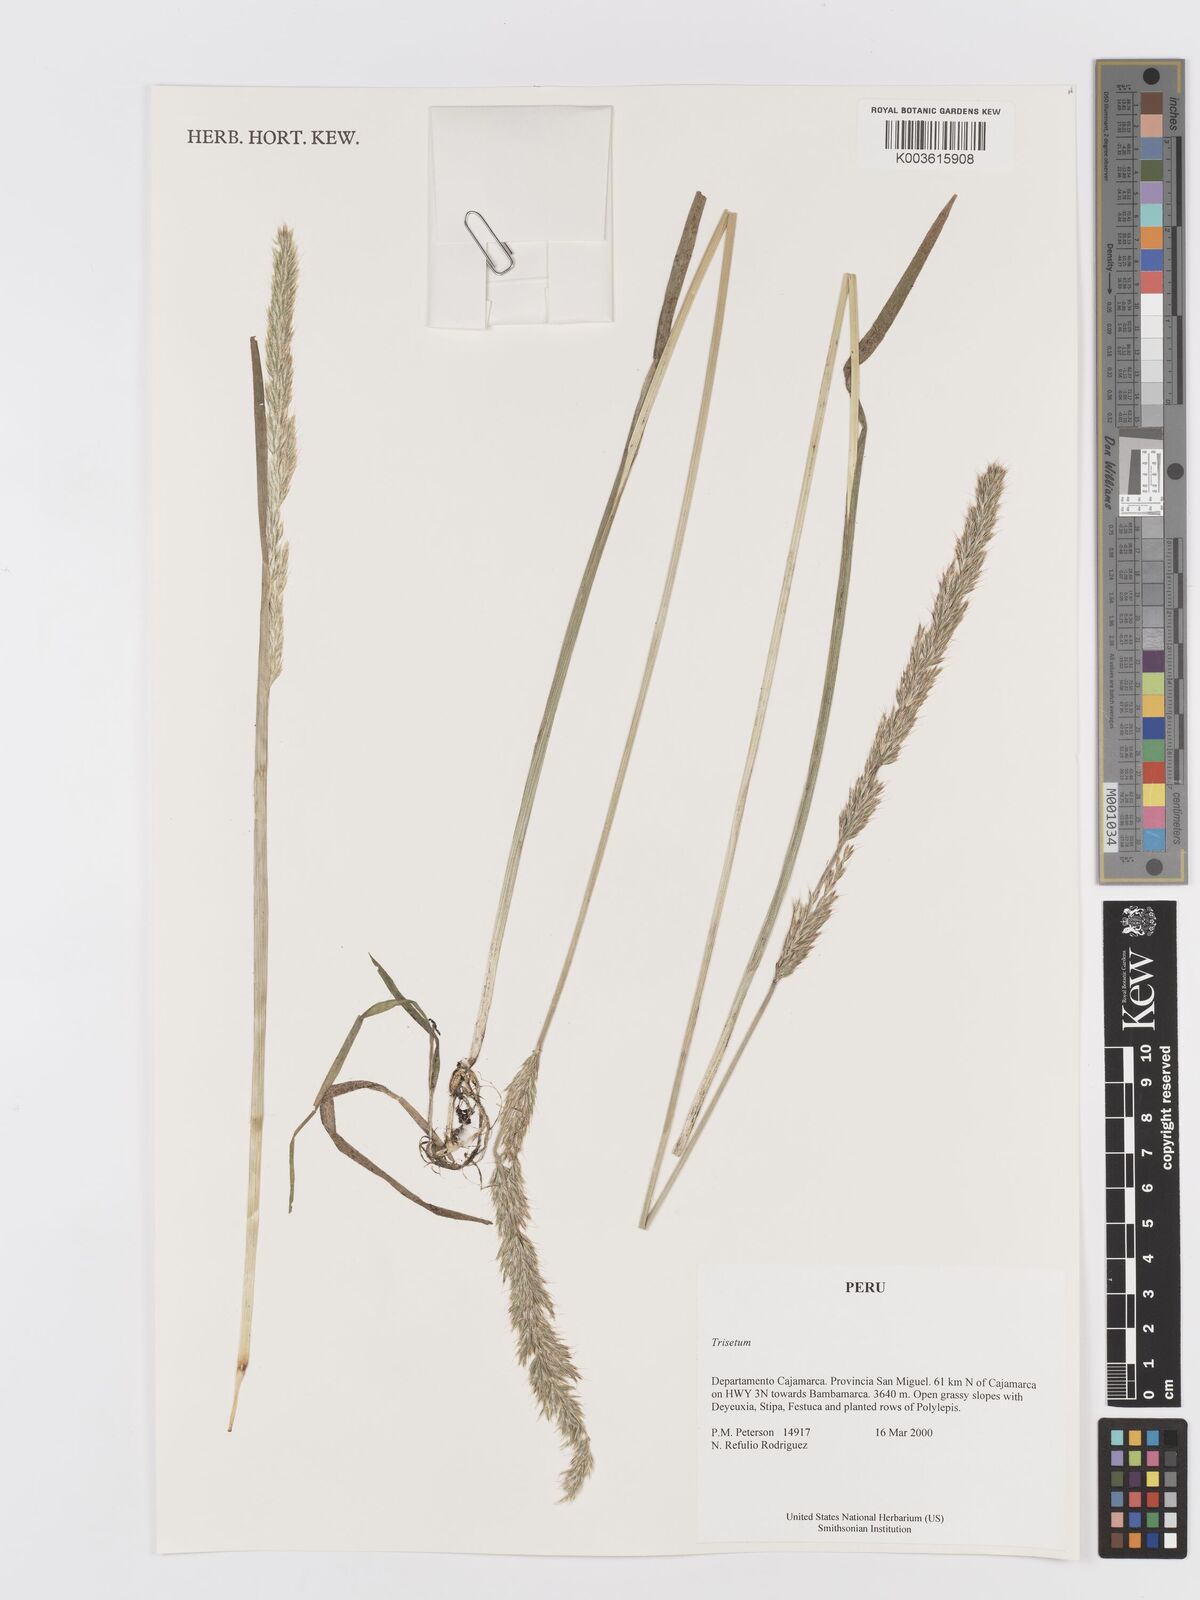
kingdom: Plantae
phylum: Tracheophyta
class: Liliopsida
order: Poales
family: Poaceae
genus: Trisetum
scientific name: Trisetum
